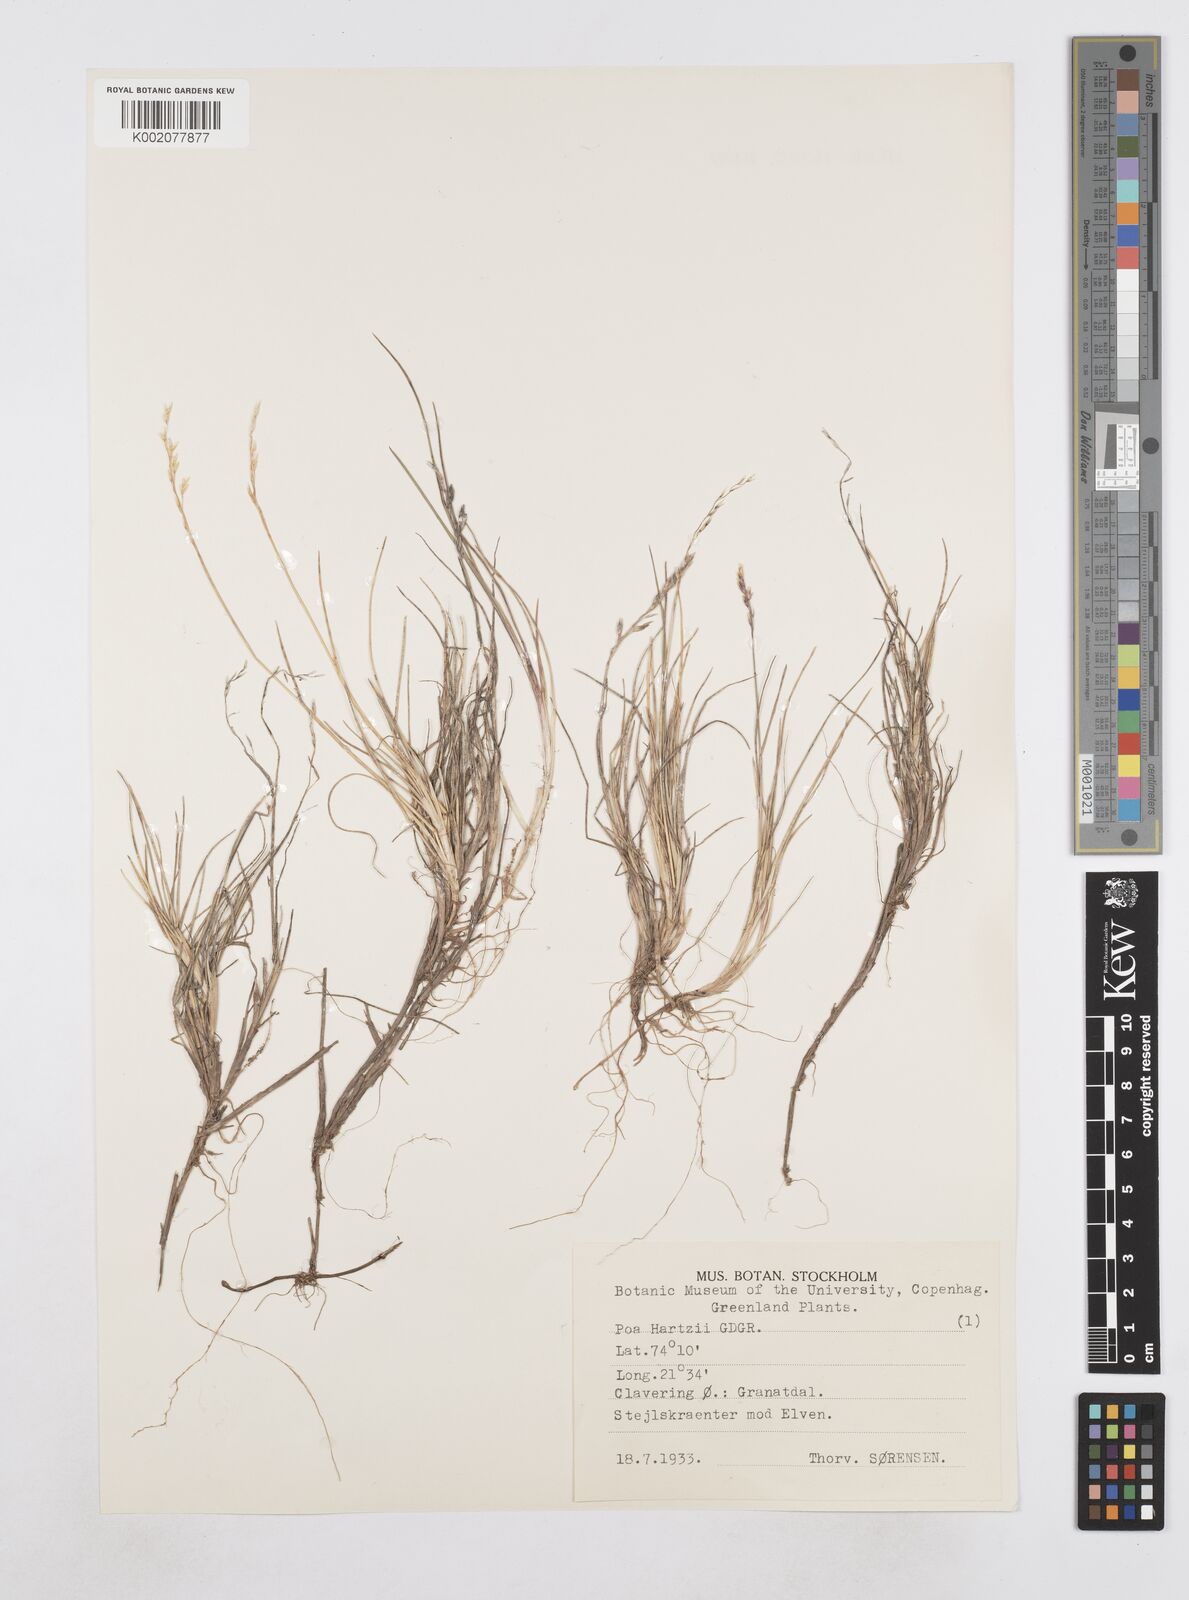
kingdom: Plantae
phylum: Tracheophyta
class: Liliopsida
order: Poales
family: Poaceae
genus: Poa
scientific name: Poa hartzii
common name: Hartz's bluegrass
